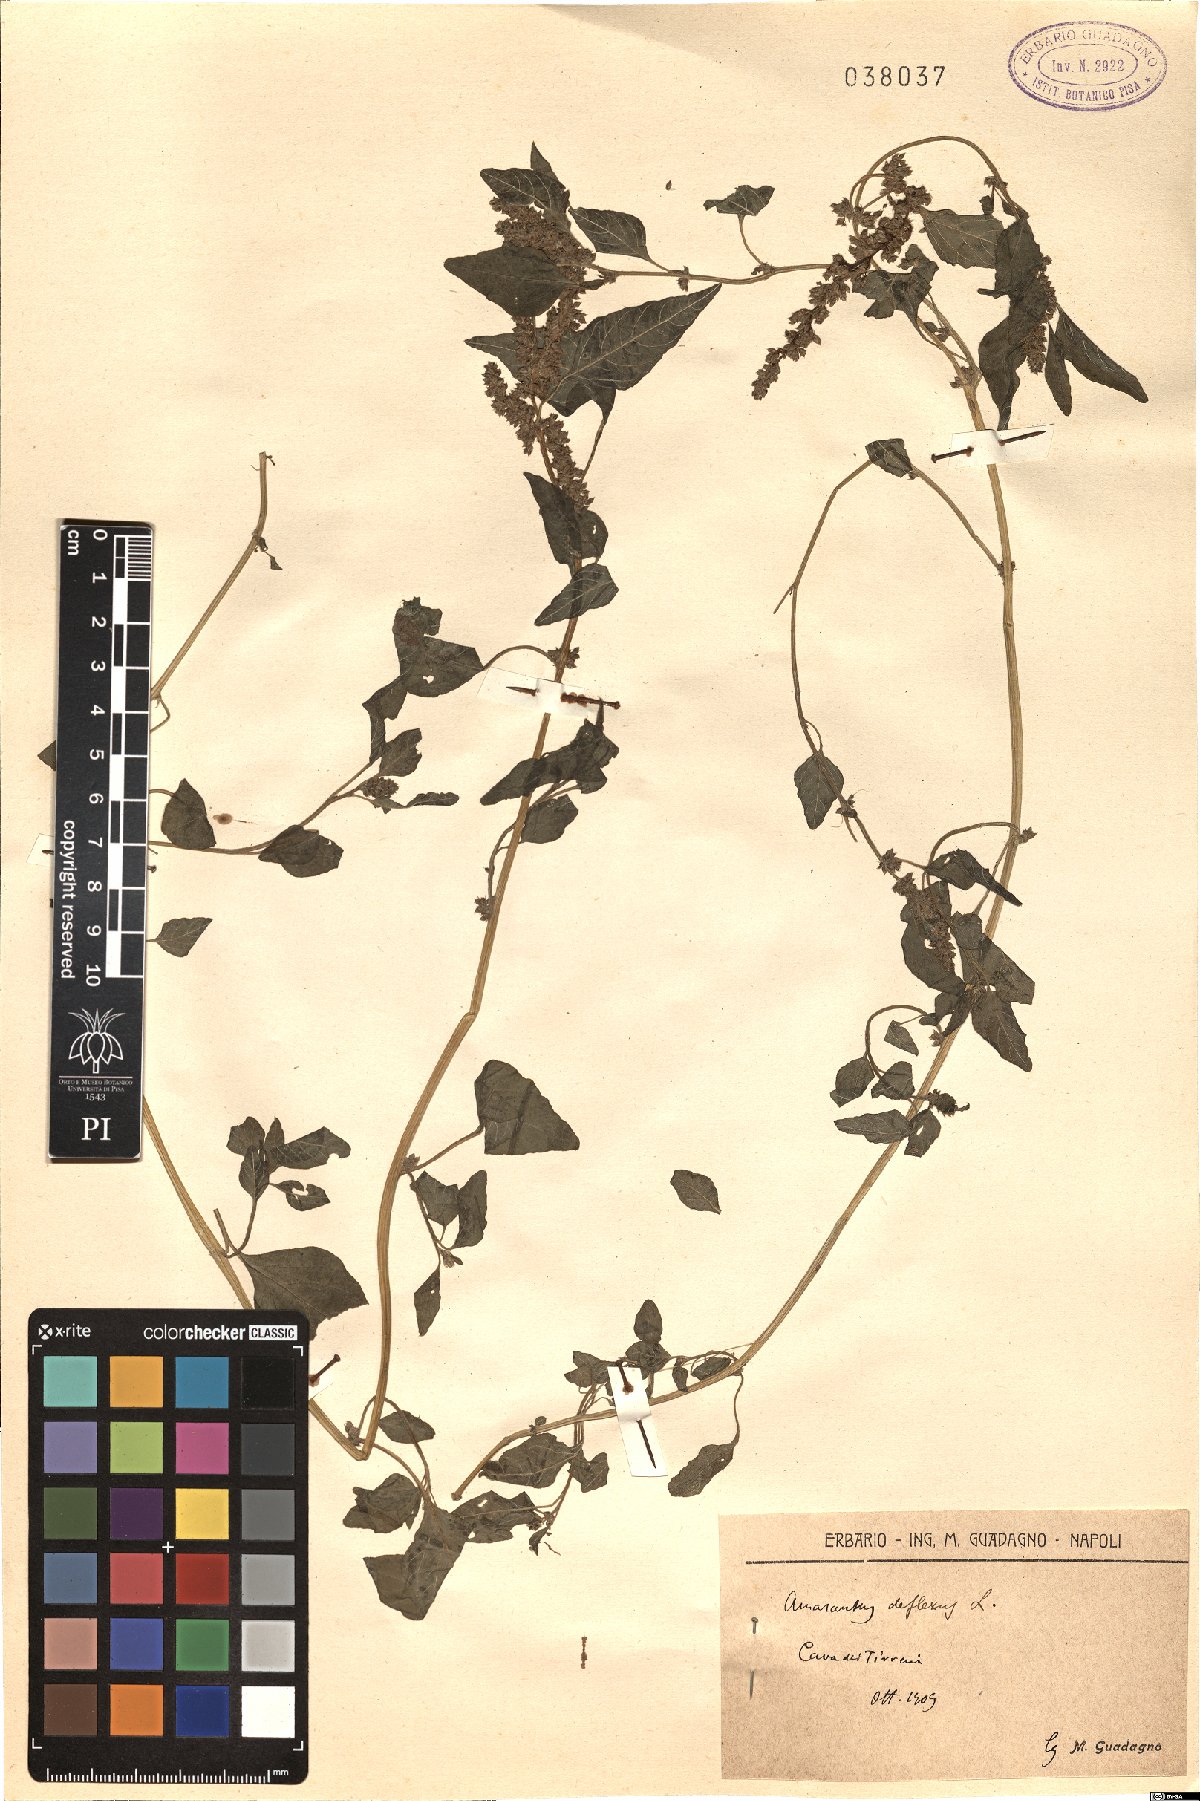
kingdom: Plantae
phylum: Tracheophyta
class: Magnoliopsida
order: Caryophyllales
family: Amaranthaceae
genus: Amaranthus
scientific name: Amaranthus deflexus
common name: Perennial pigweed
